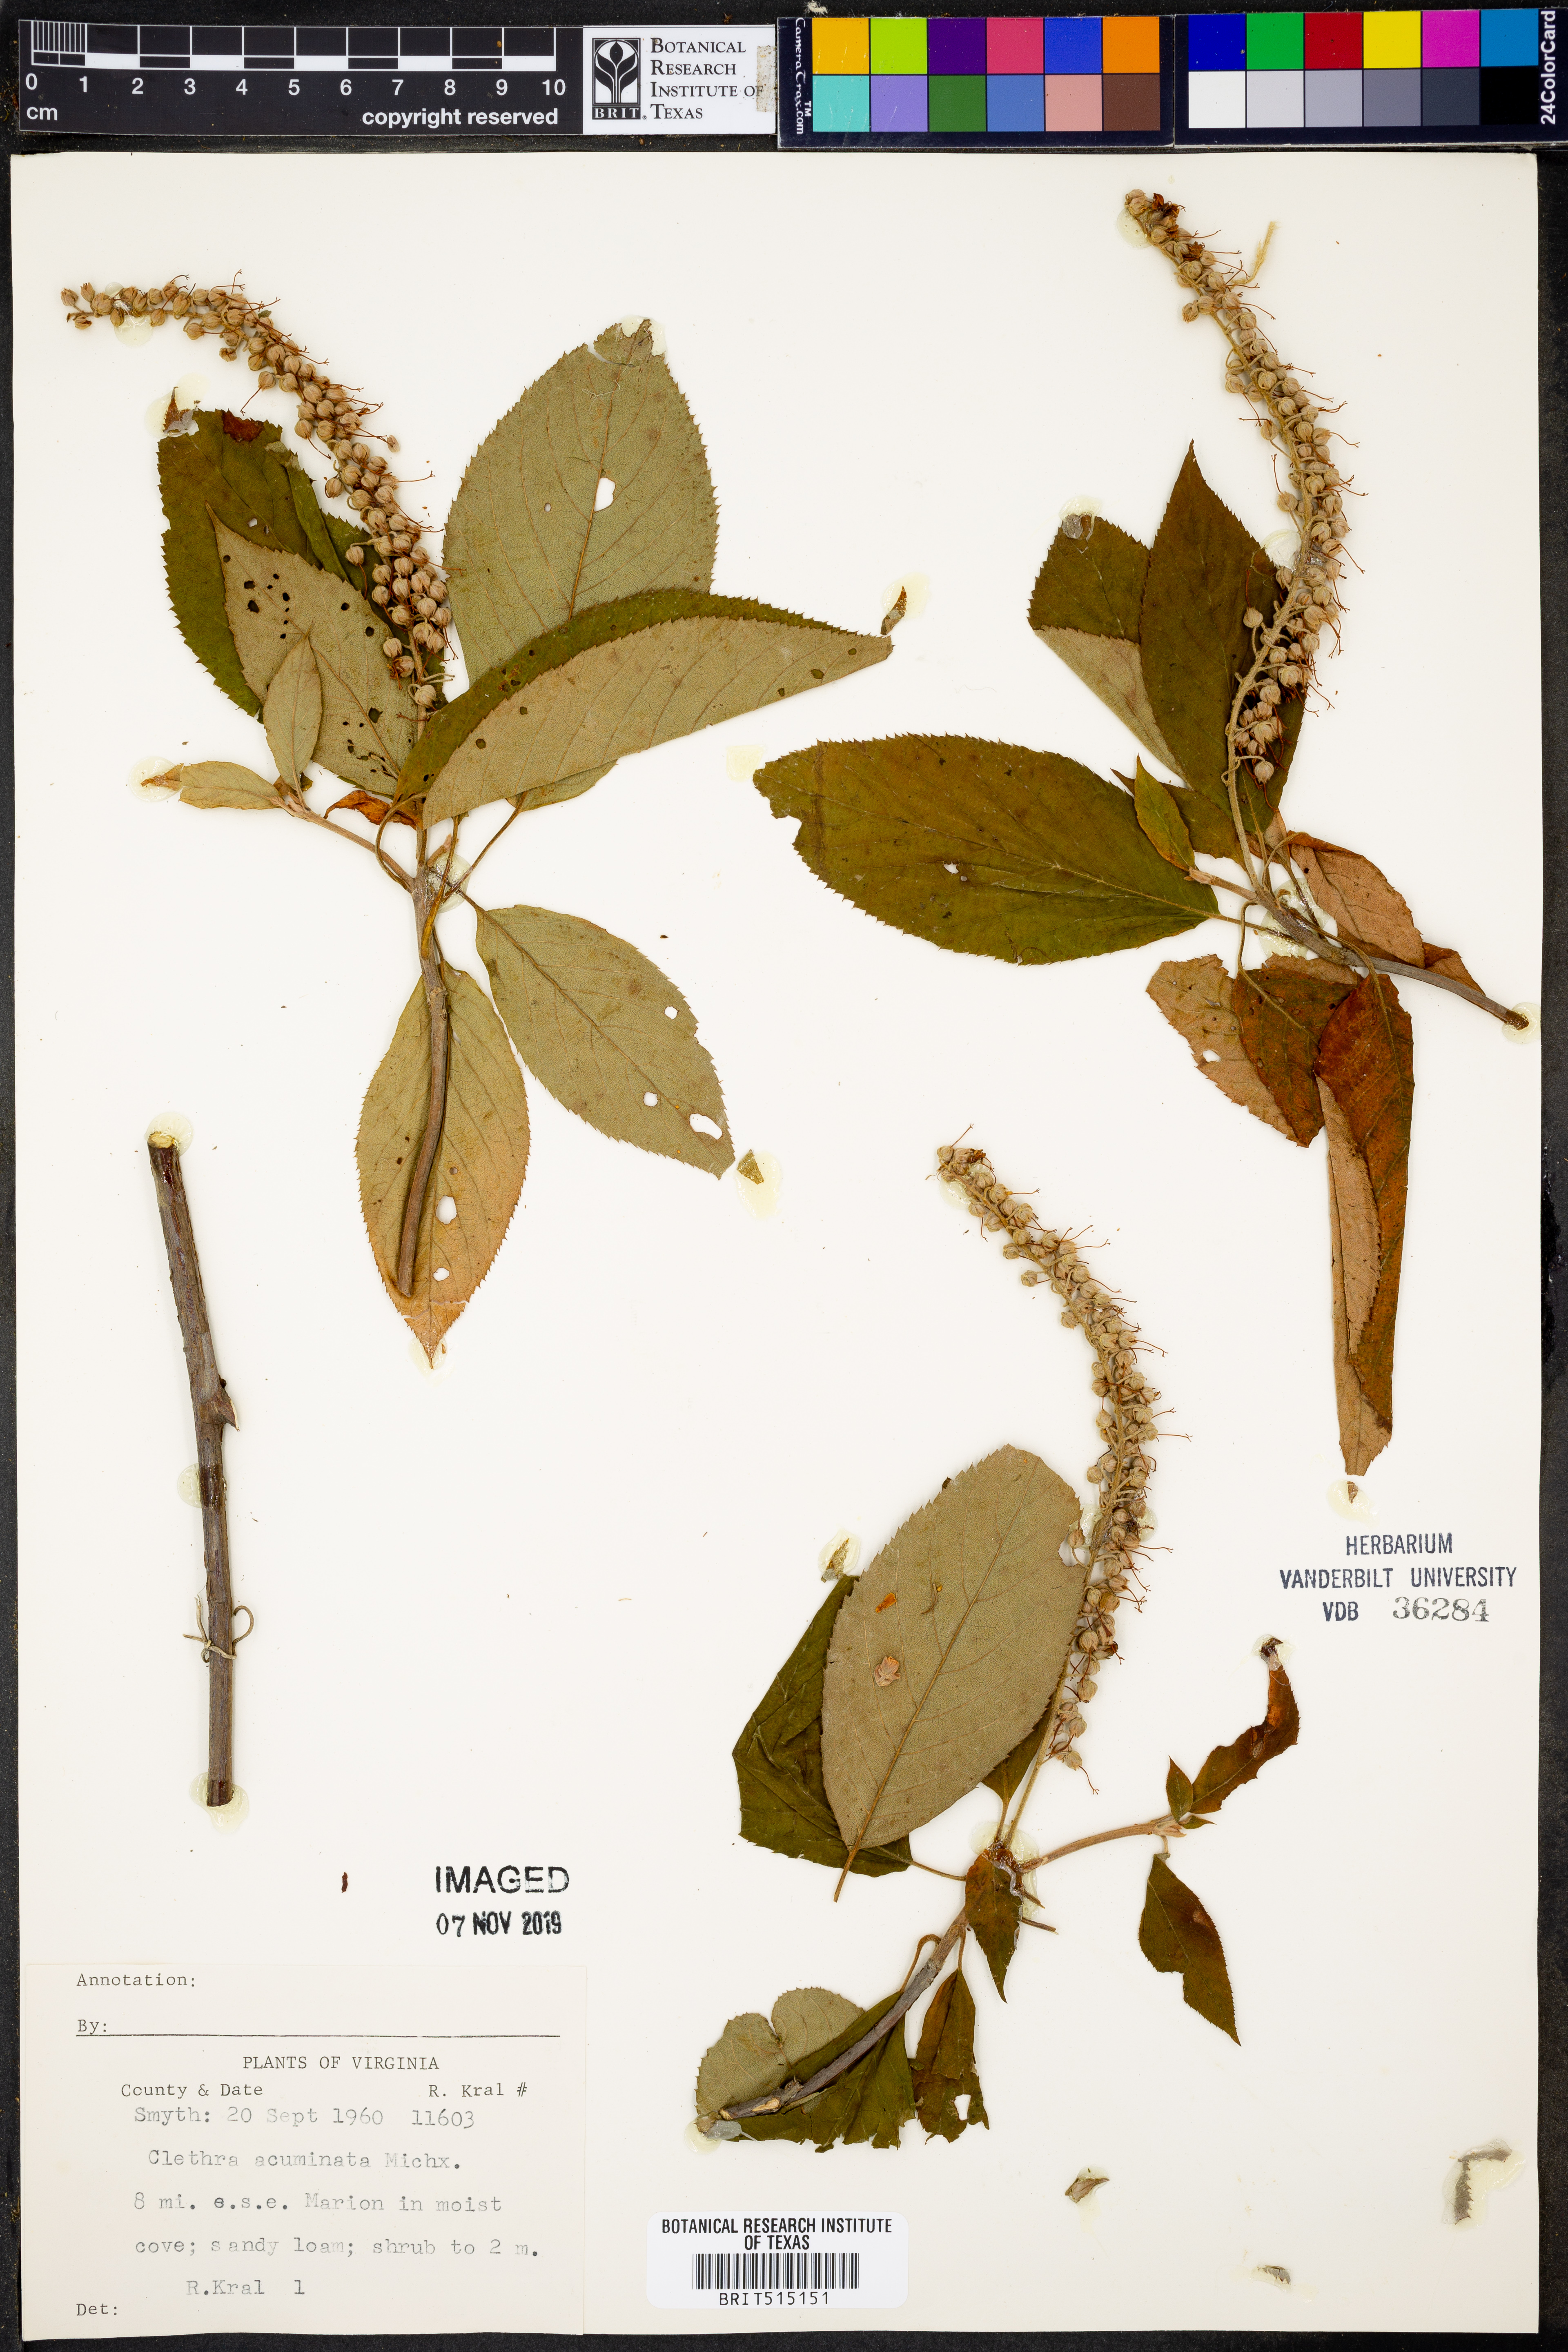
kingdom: Plantae
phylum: Tracheophyta
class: Magnoliopsida
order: Ericales
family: Clethraceae
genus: Clethra
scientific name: Clethra acuminata
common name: Mountain sweet pepperbush
